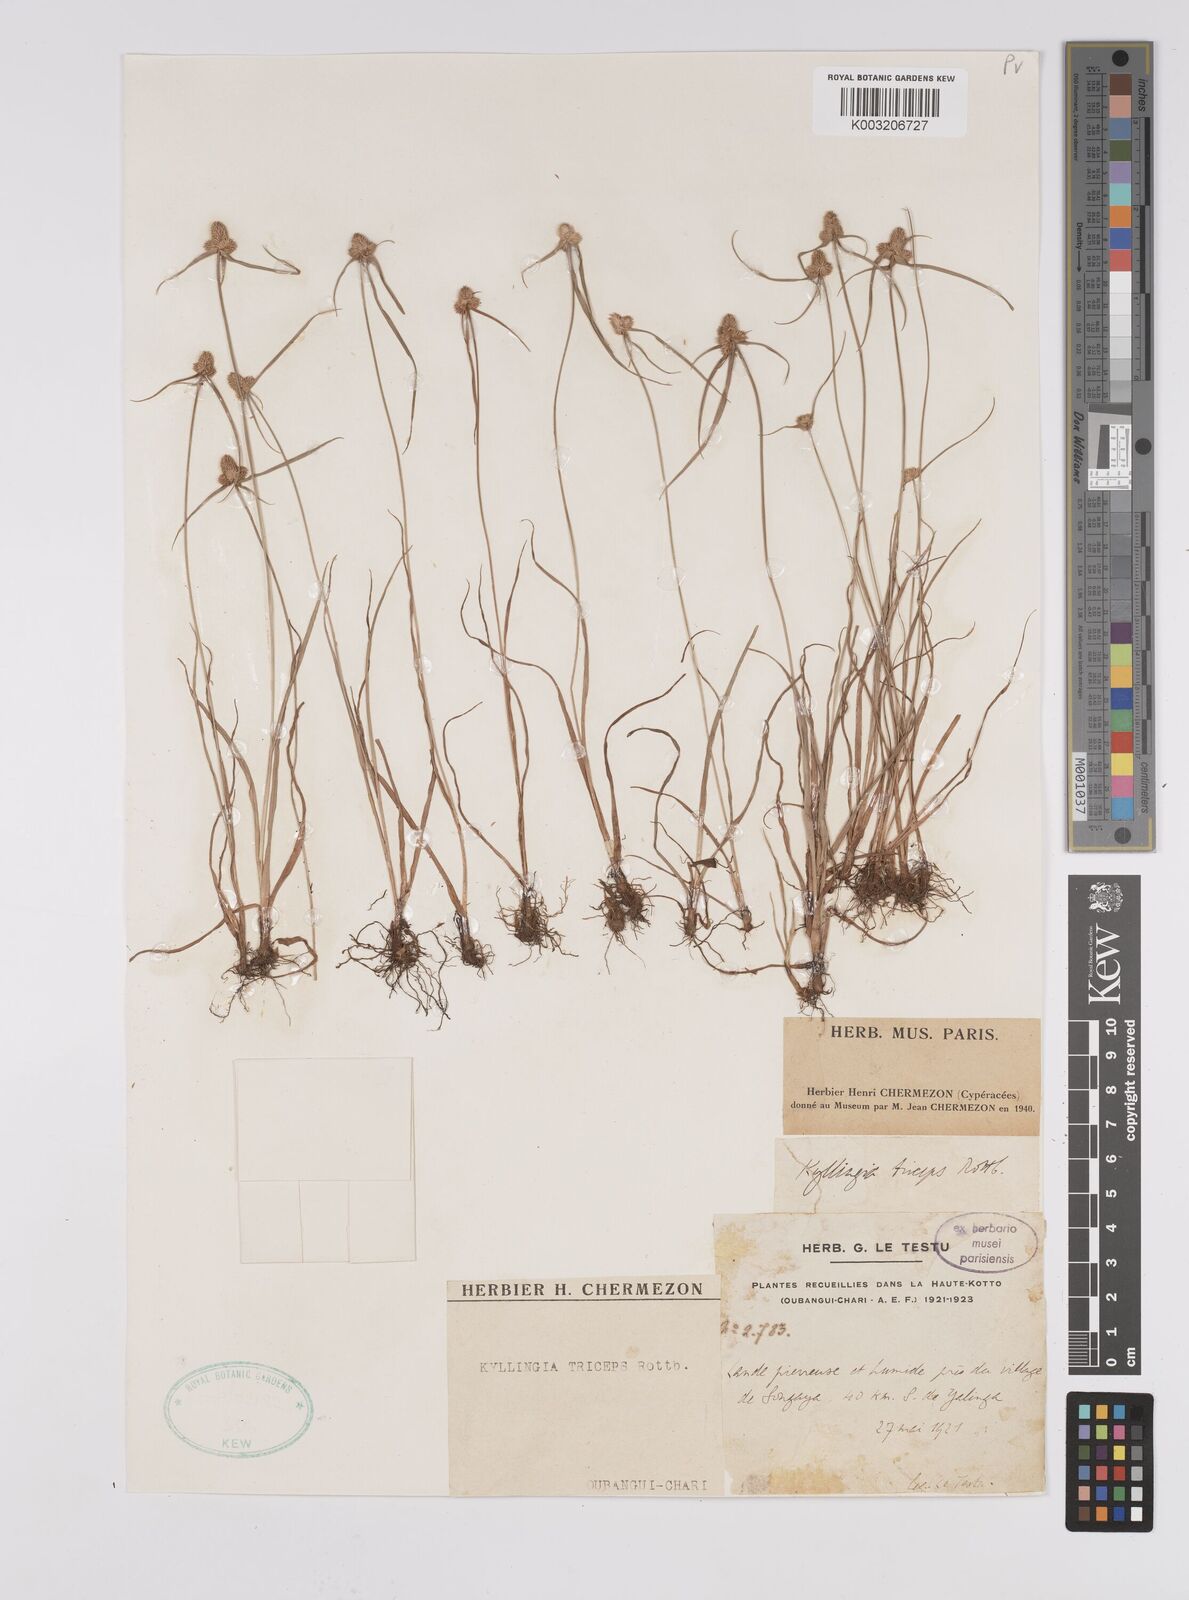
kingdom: Plantae
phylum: Tracheophyta
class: Liliopsida
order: Poales
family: Cyperaceae
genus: Cyperus
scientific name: Cyperus
